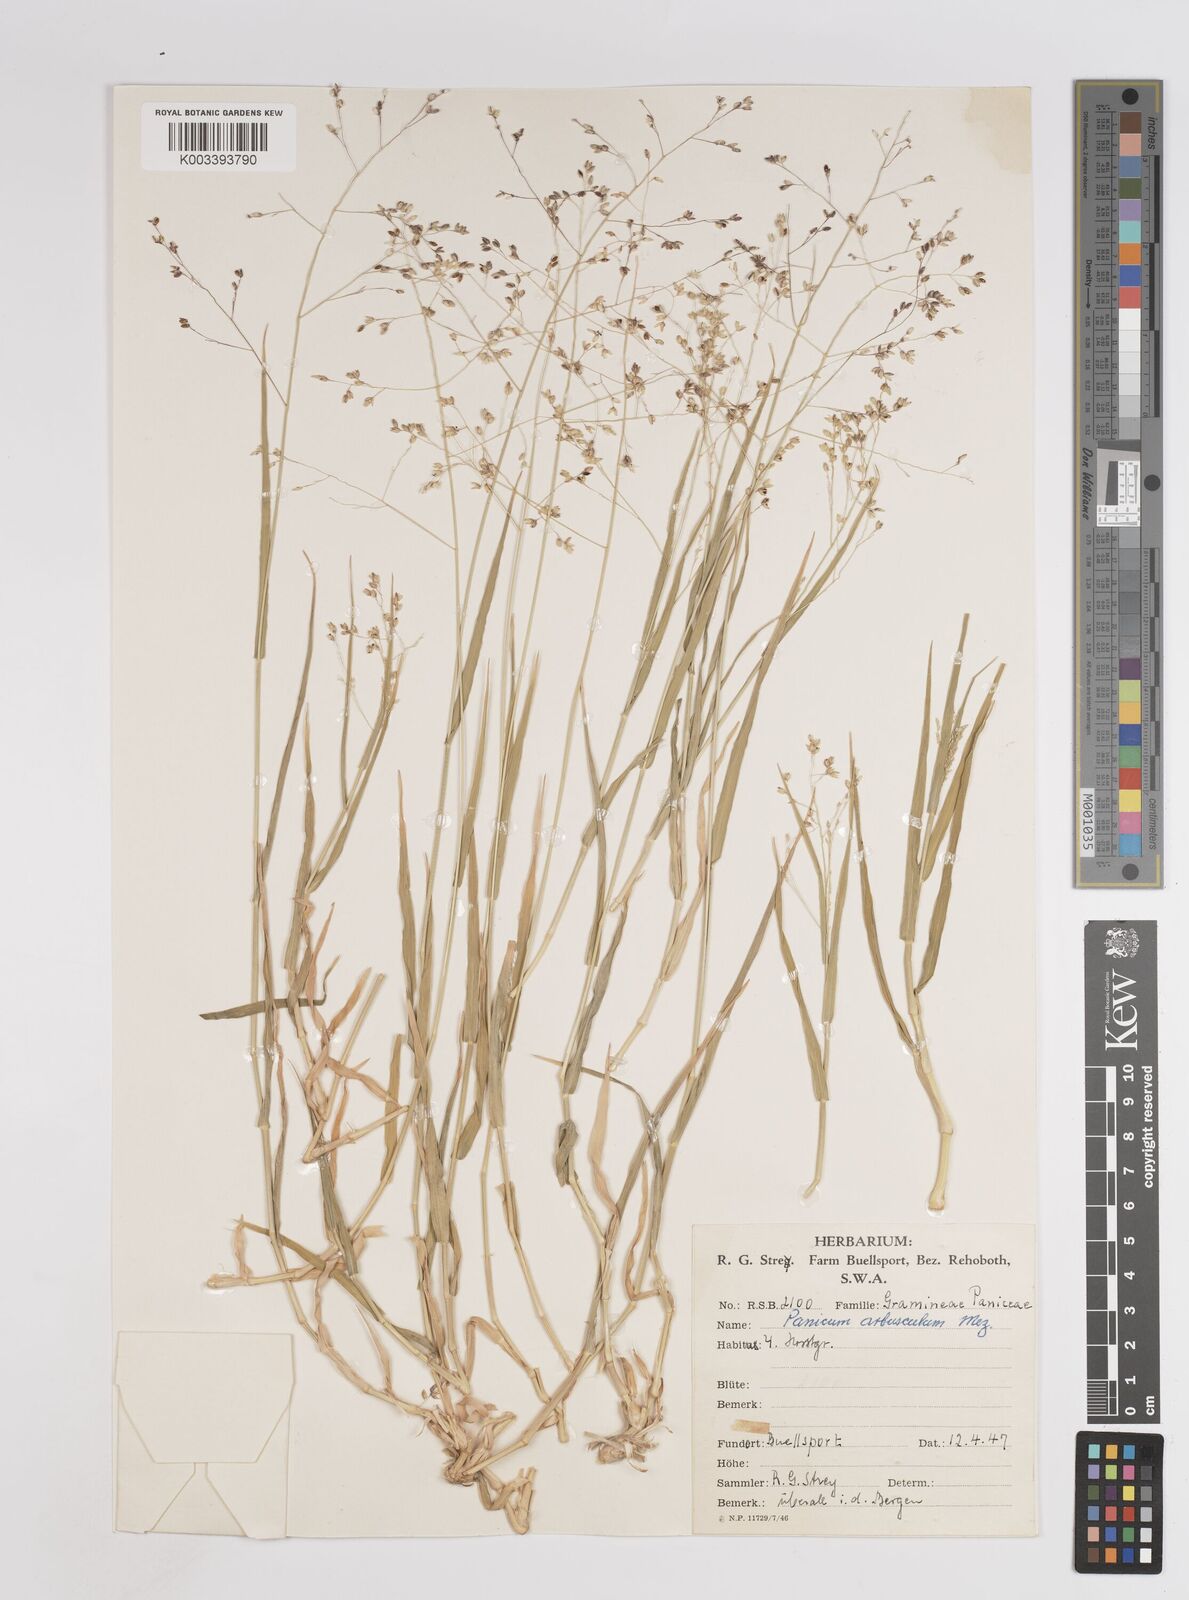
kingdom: Plantae
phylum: Tracheophyta
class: Liliopsida
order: Poales
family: Poaceae
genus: Panicum
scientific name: Panicum arbusculum
